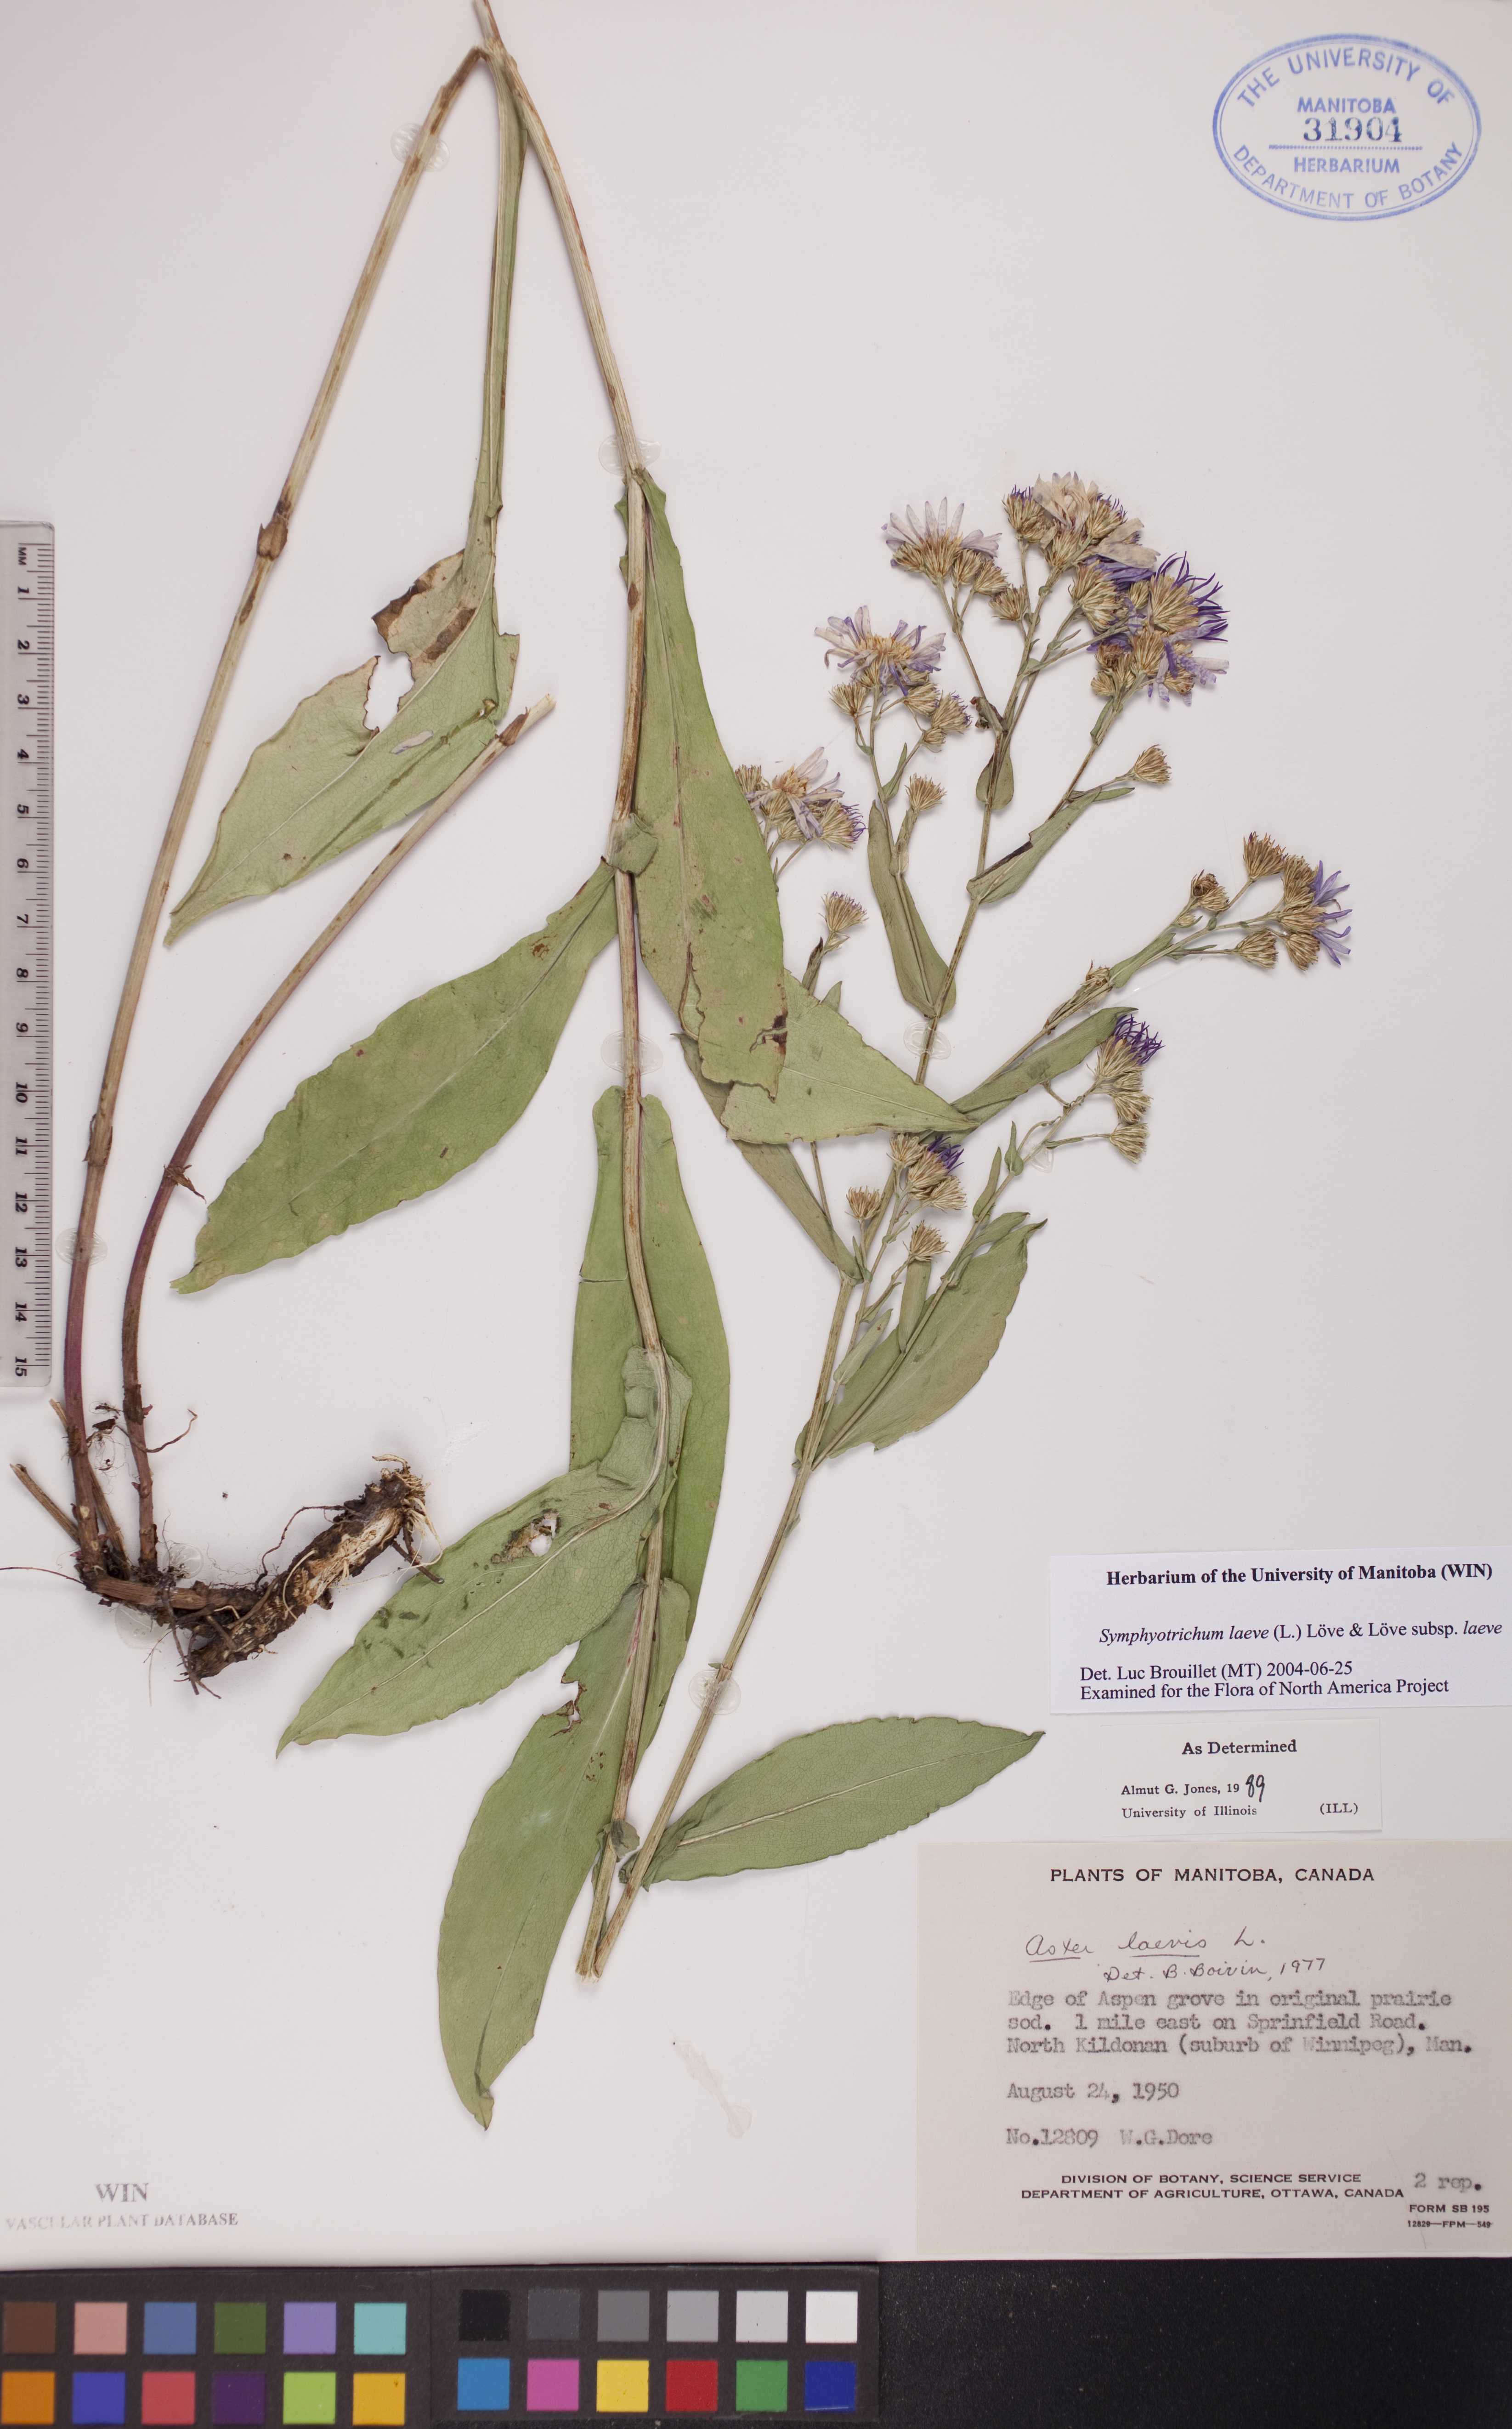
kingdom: Plantae
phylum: Tracheophyta
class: Magnoliopsida
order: Asterales
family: Asteraceae
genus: Symphyotrichum
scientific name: Symphyotrichum laeve
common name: Glaucous aster
